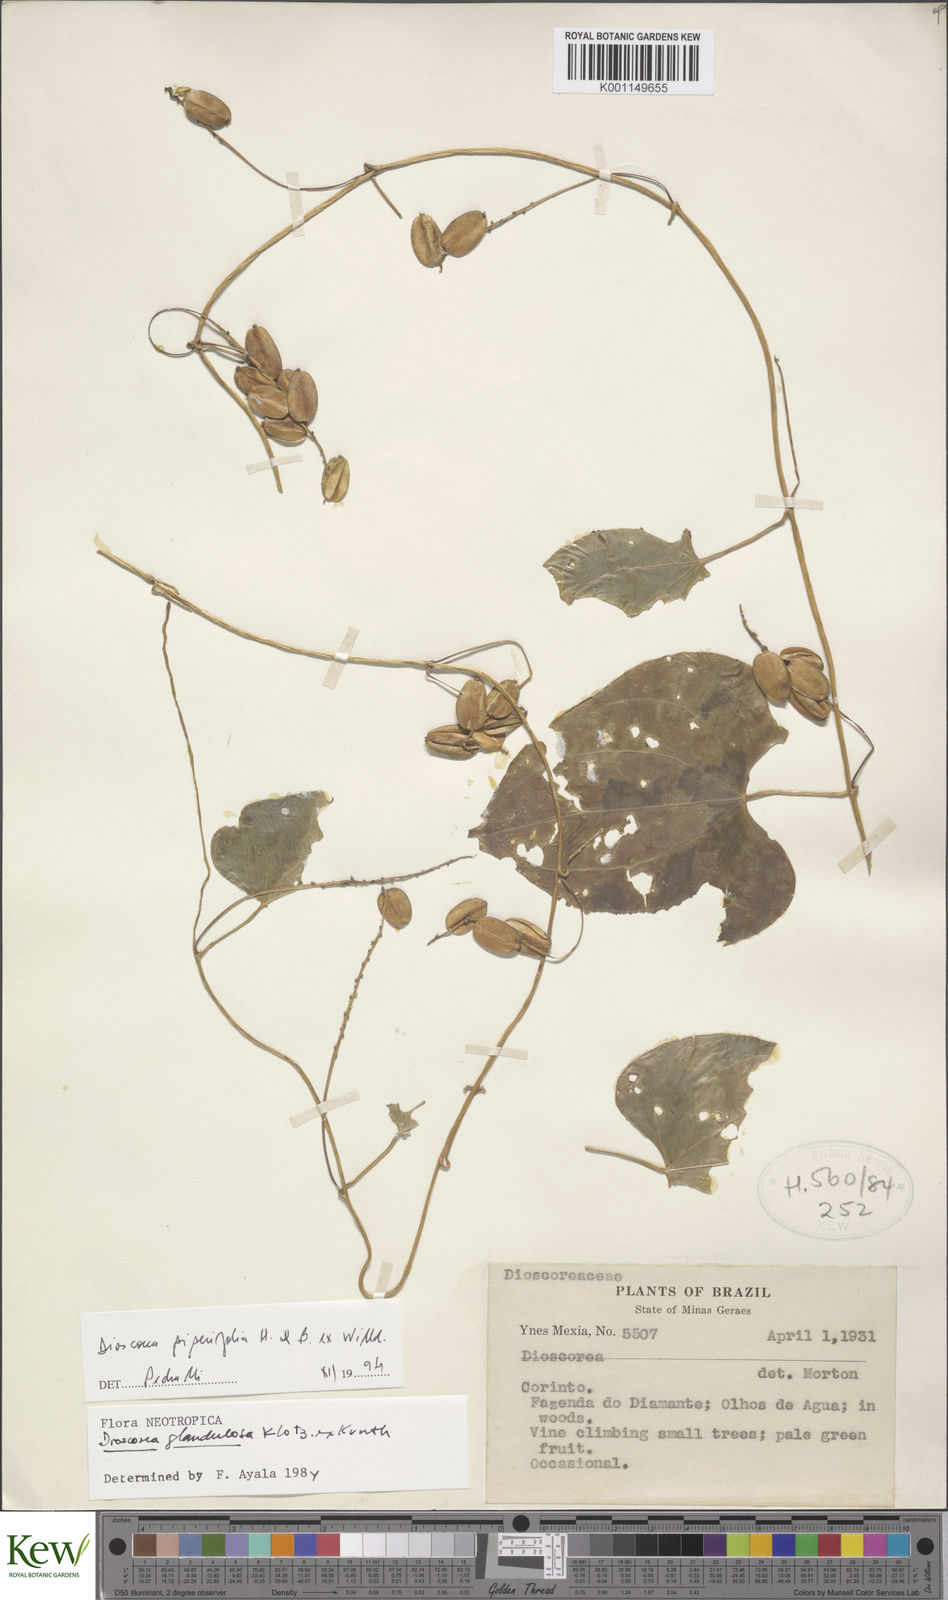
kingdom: Plantae
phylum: Tracheophyta
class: Liliopsida
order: Dioscoreales
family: Dioscoreaceae
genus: Dioscorea
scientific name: Dioscorea glandulosa
